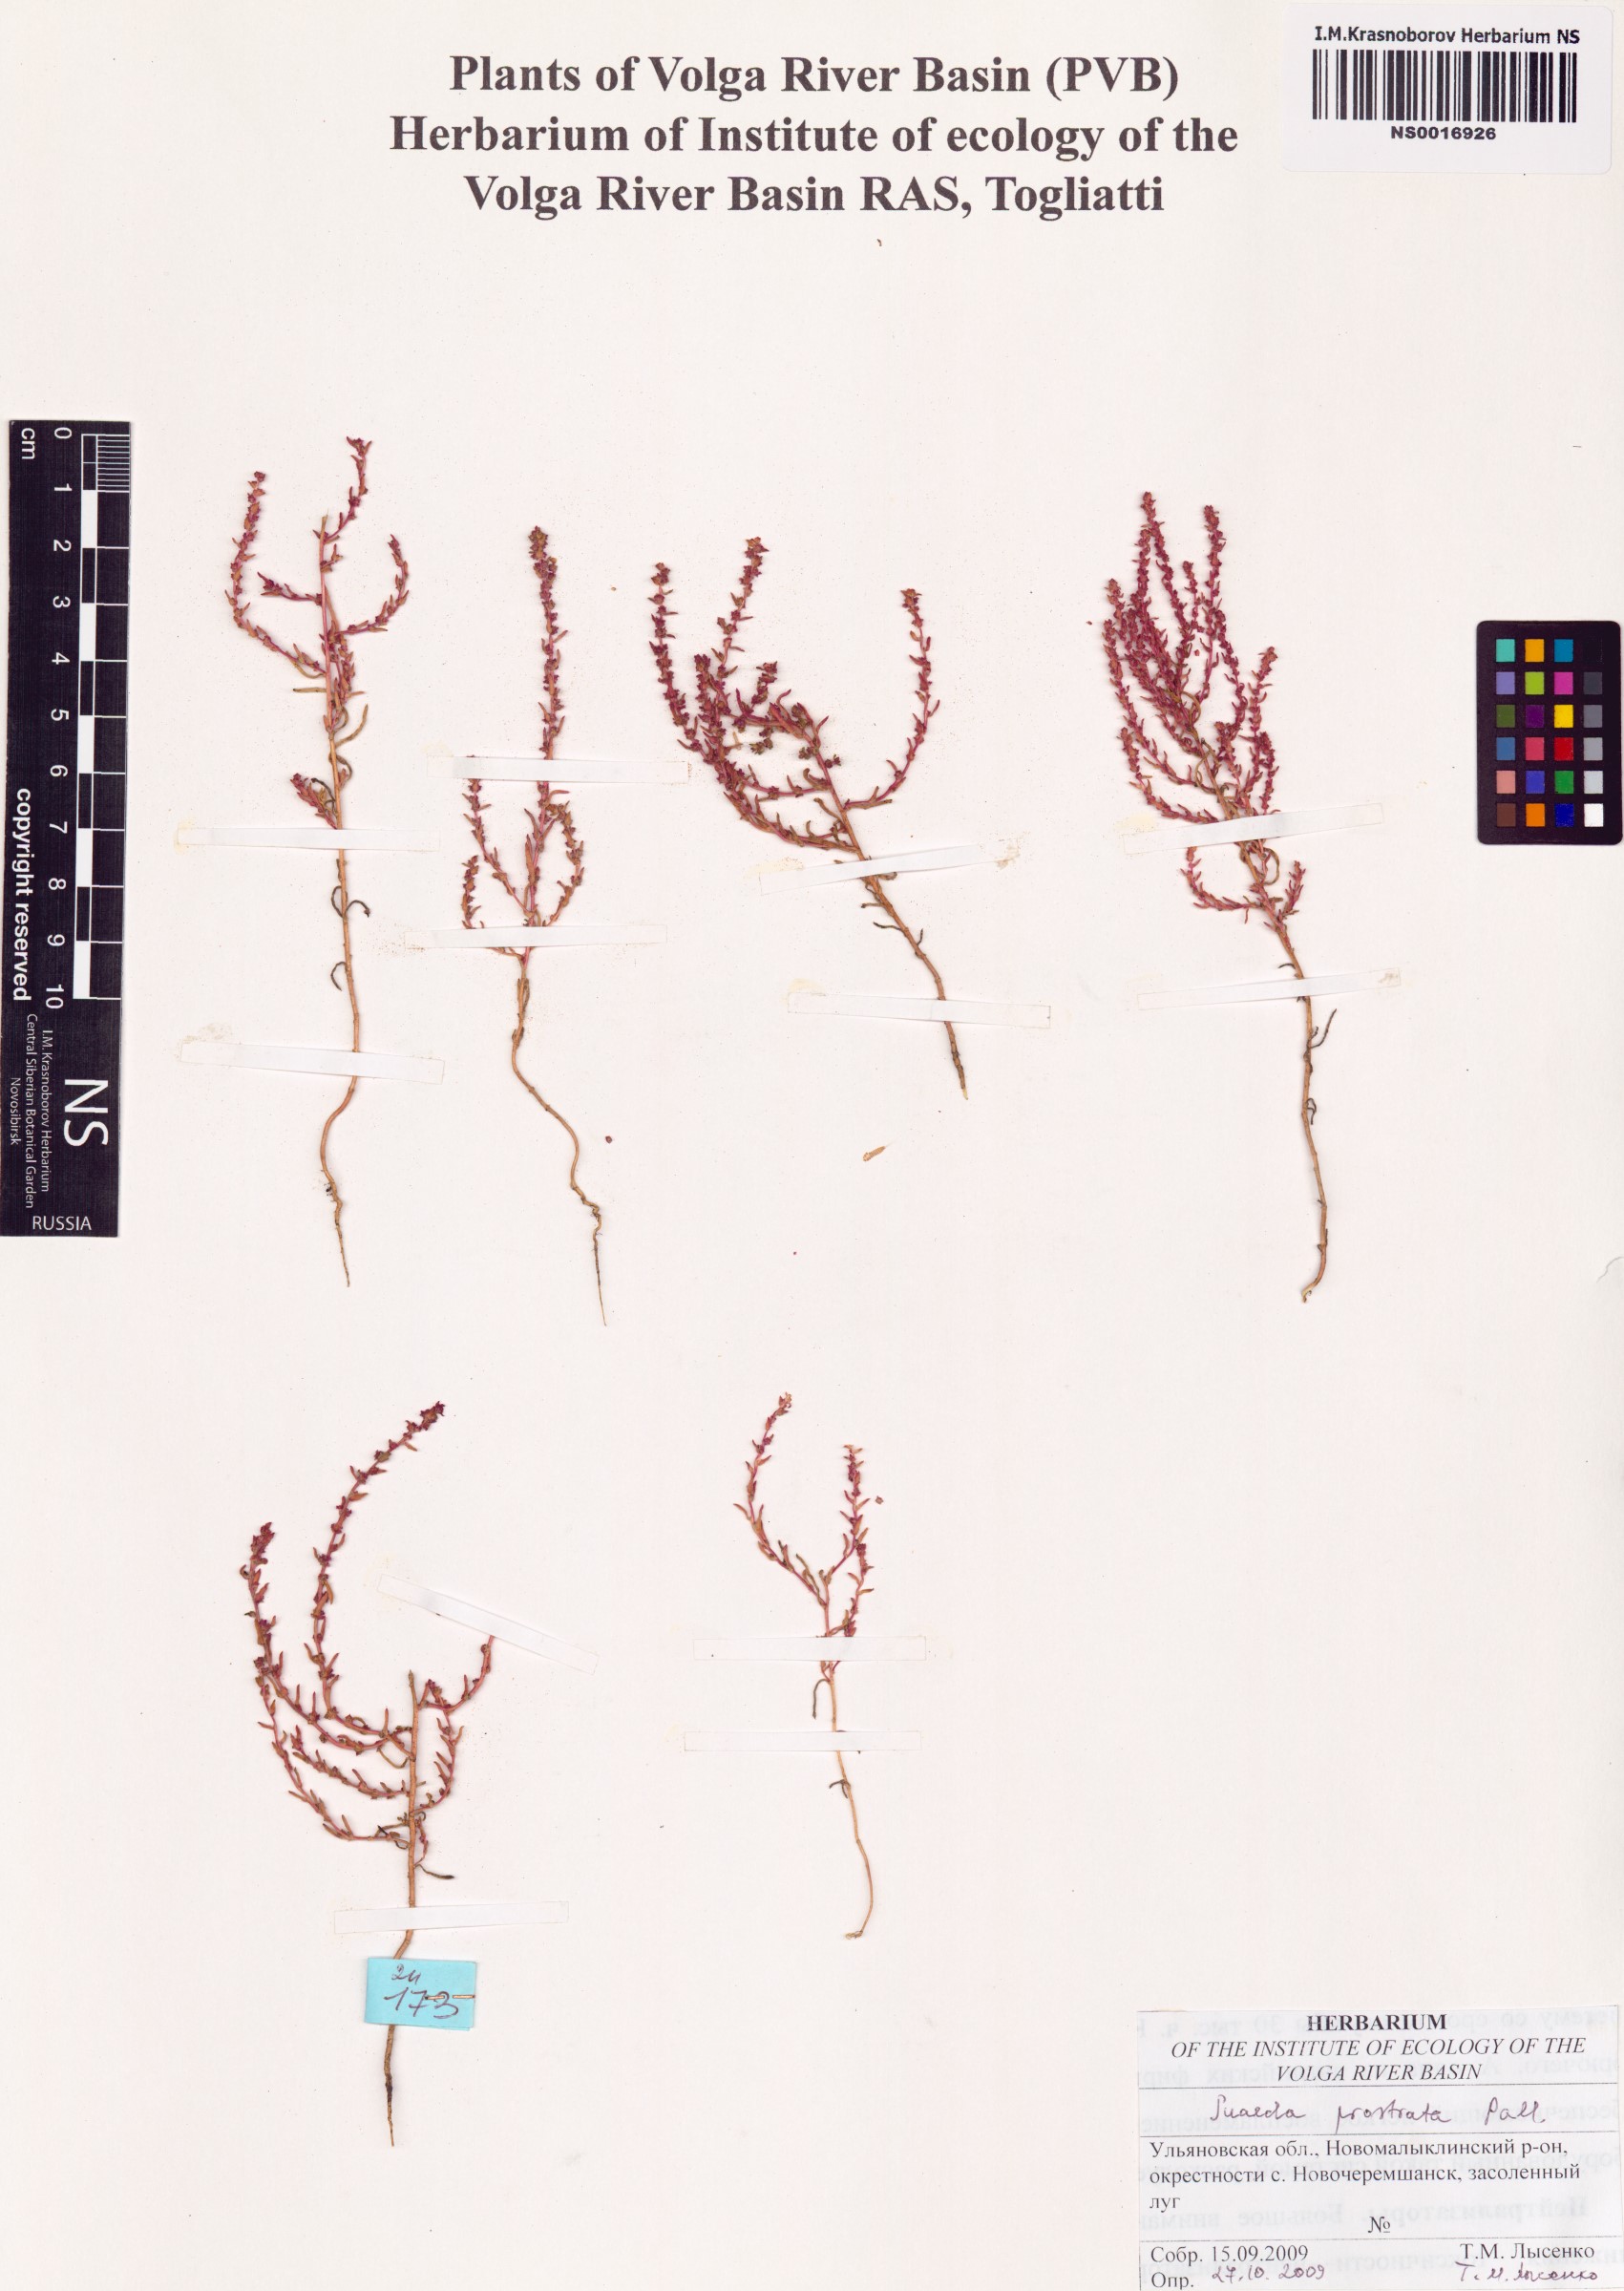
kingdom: Plantae
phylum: Tracheophyta
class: Magnoliopsida
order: Caryophyllales
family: Amaranthaceae
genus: Suaeda
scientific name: Suaeda prostrata
